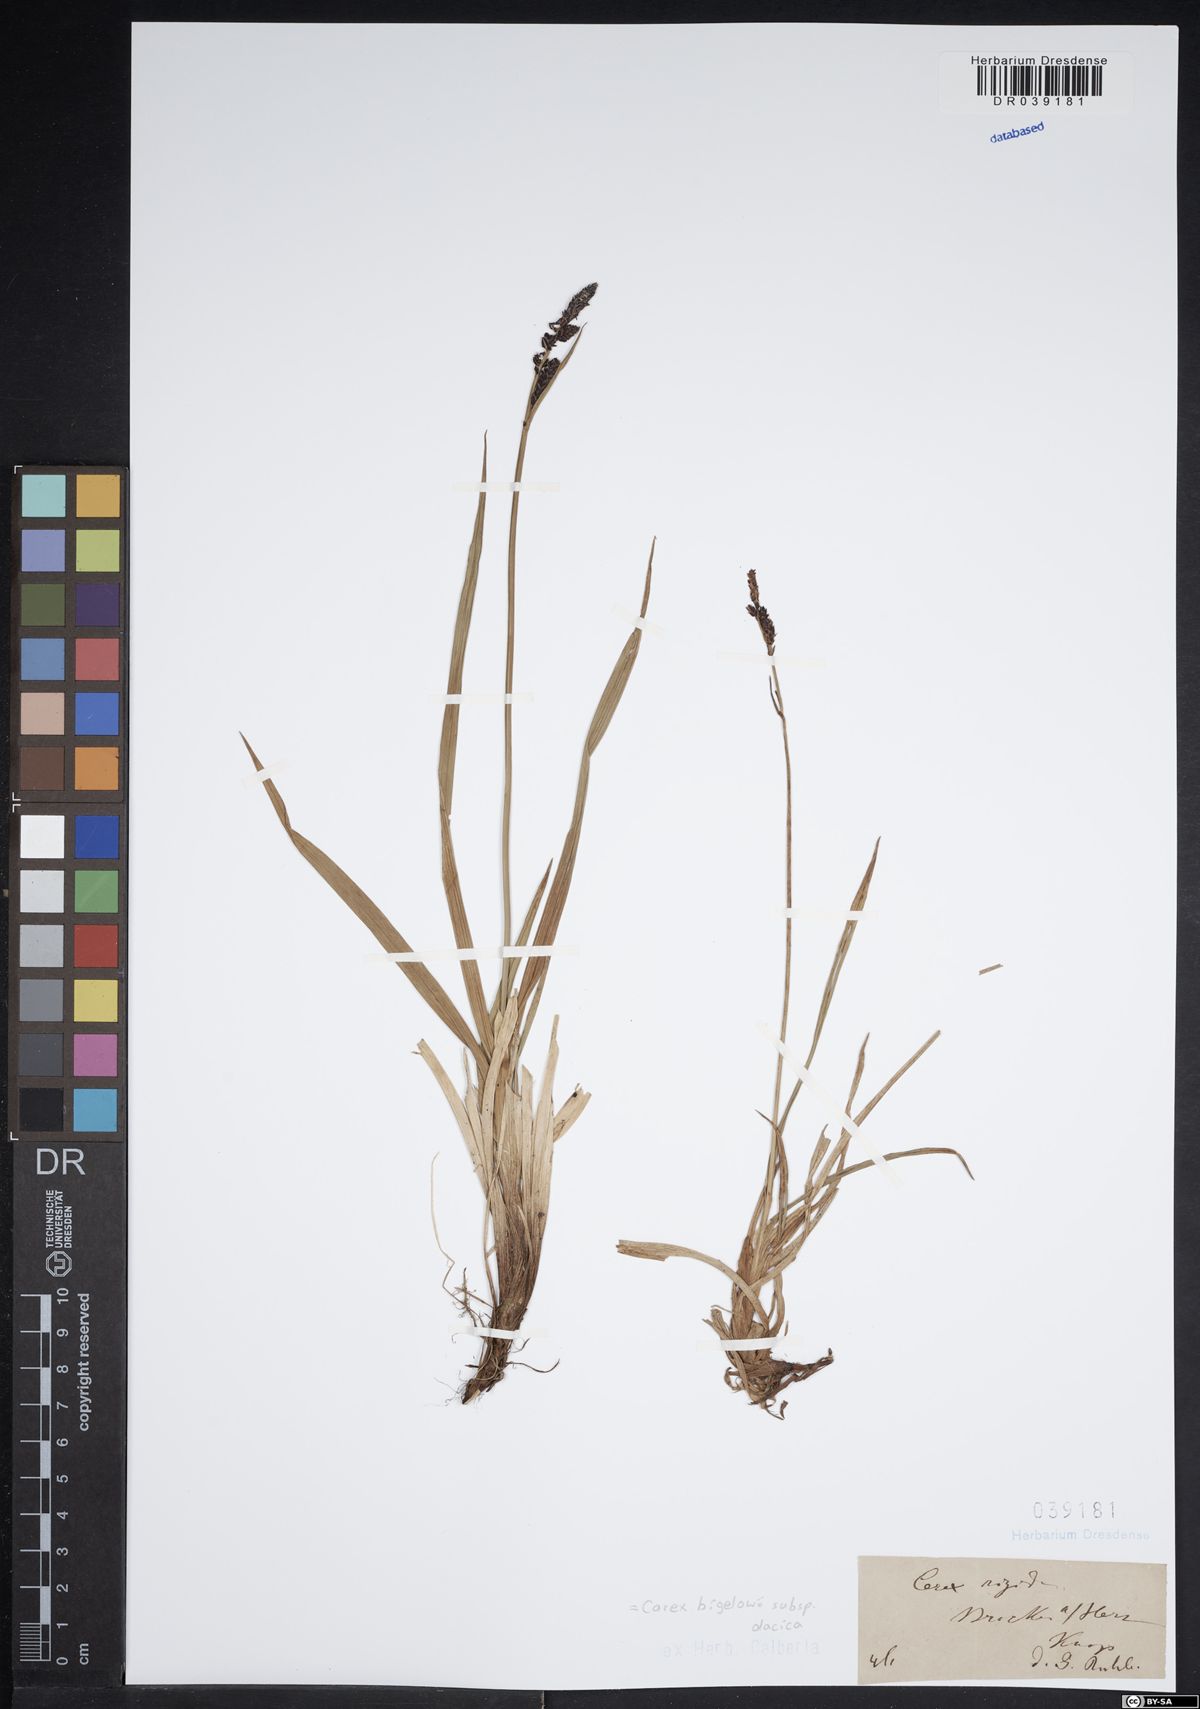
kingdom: Plantae
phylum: Tracheophyta
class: Liliopsida
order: Poales
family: Cyperaceae
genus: Carex
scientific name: Carex dacica
